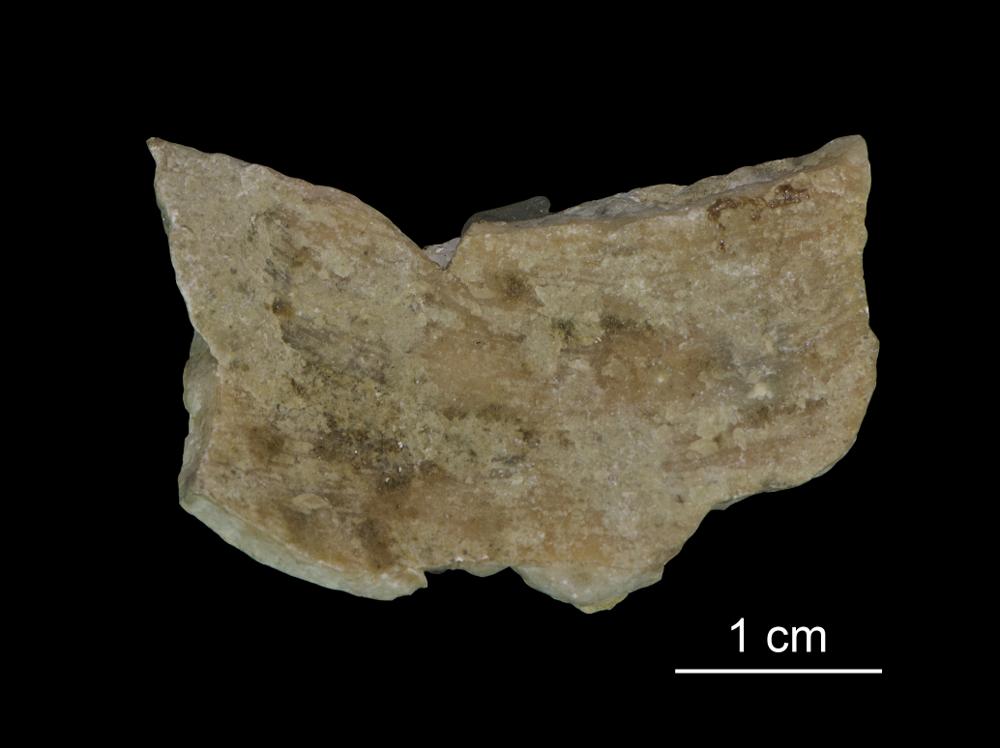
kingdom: Plantae
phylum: Tracheophyta
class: Magnoliopsida
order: Myrtales
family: Myrtaceae
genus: Darwinia
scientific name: Darwinia speciosa
